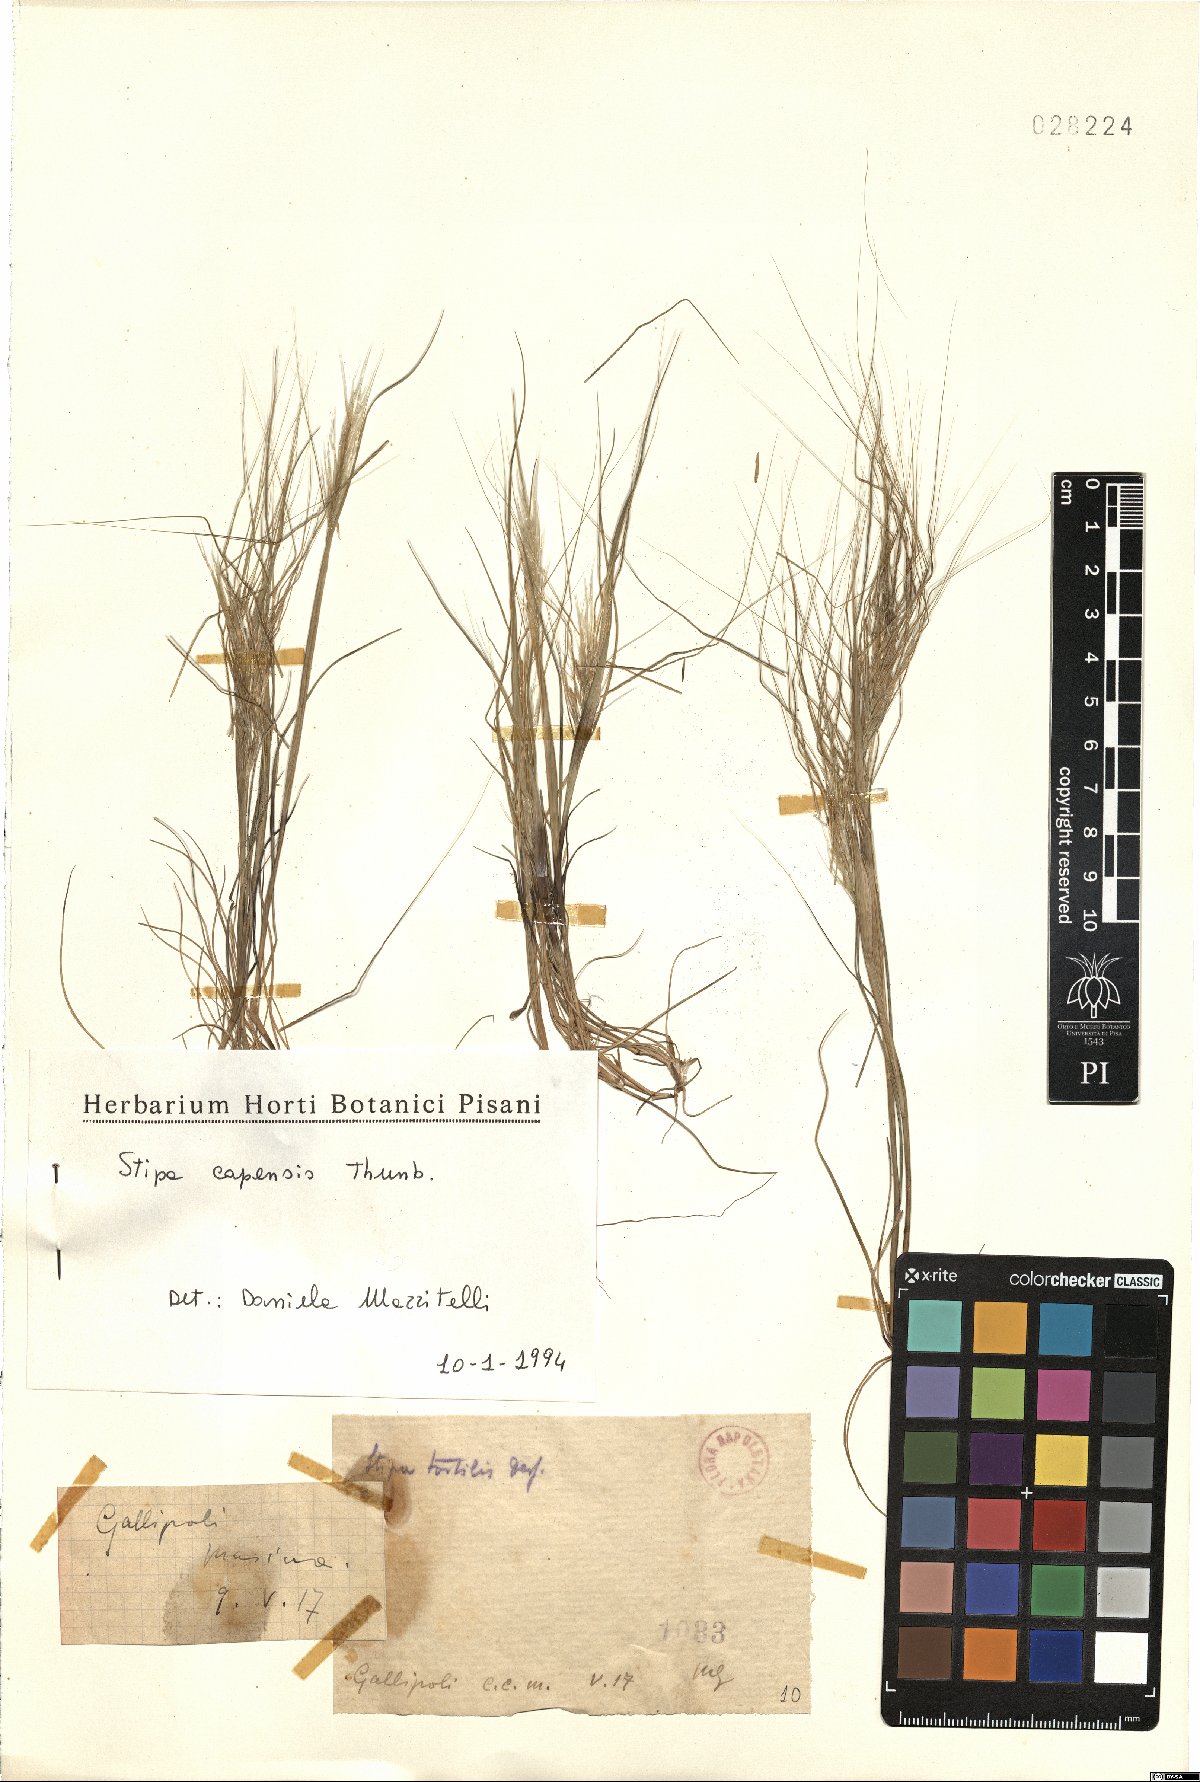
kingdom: Plantae
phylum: Tracheophyta
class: Liliopsida
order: Poales
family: Poaceae
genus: Stipellula
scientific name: Stipellula capensis
